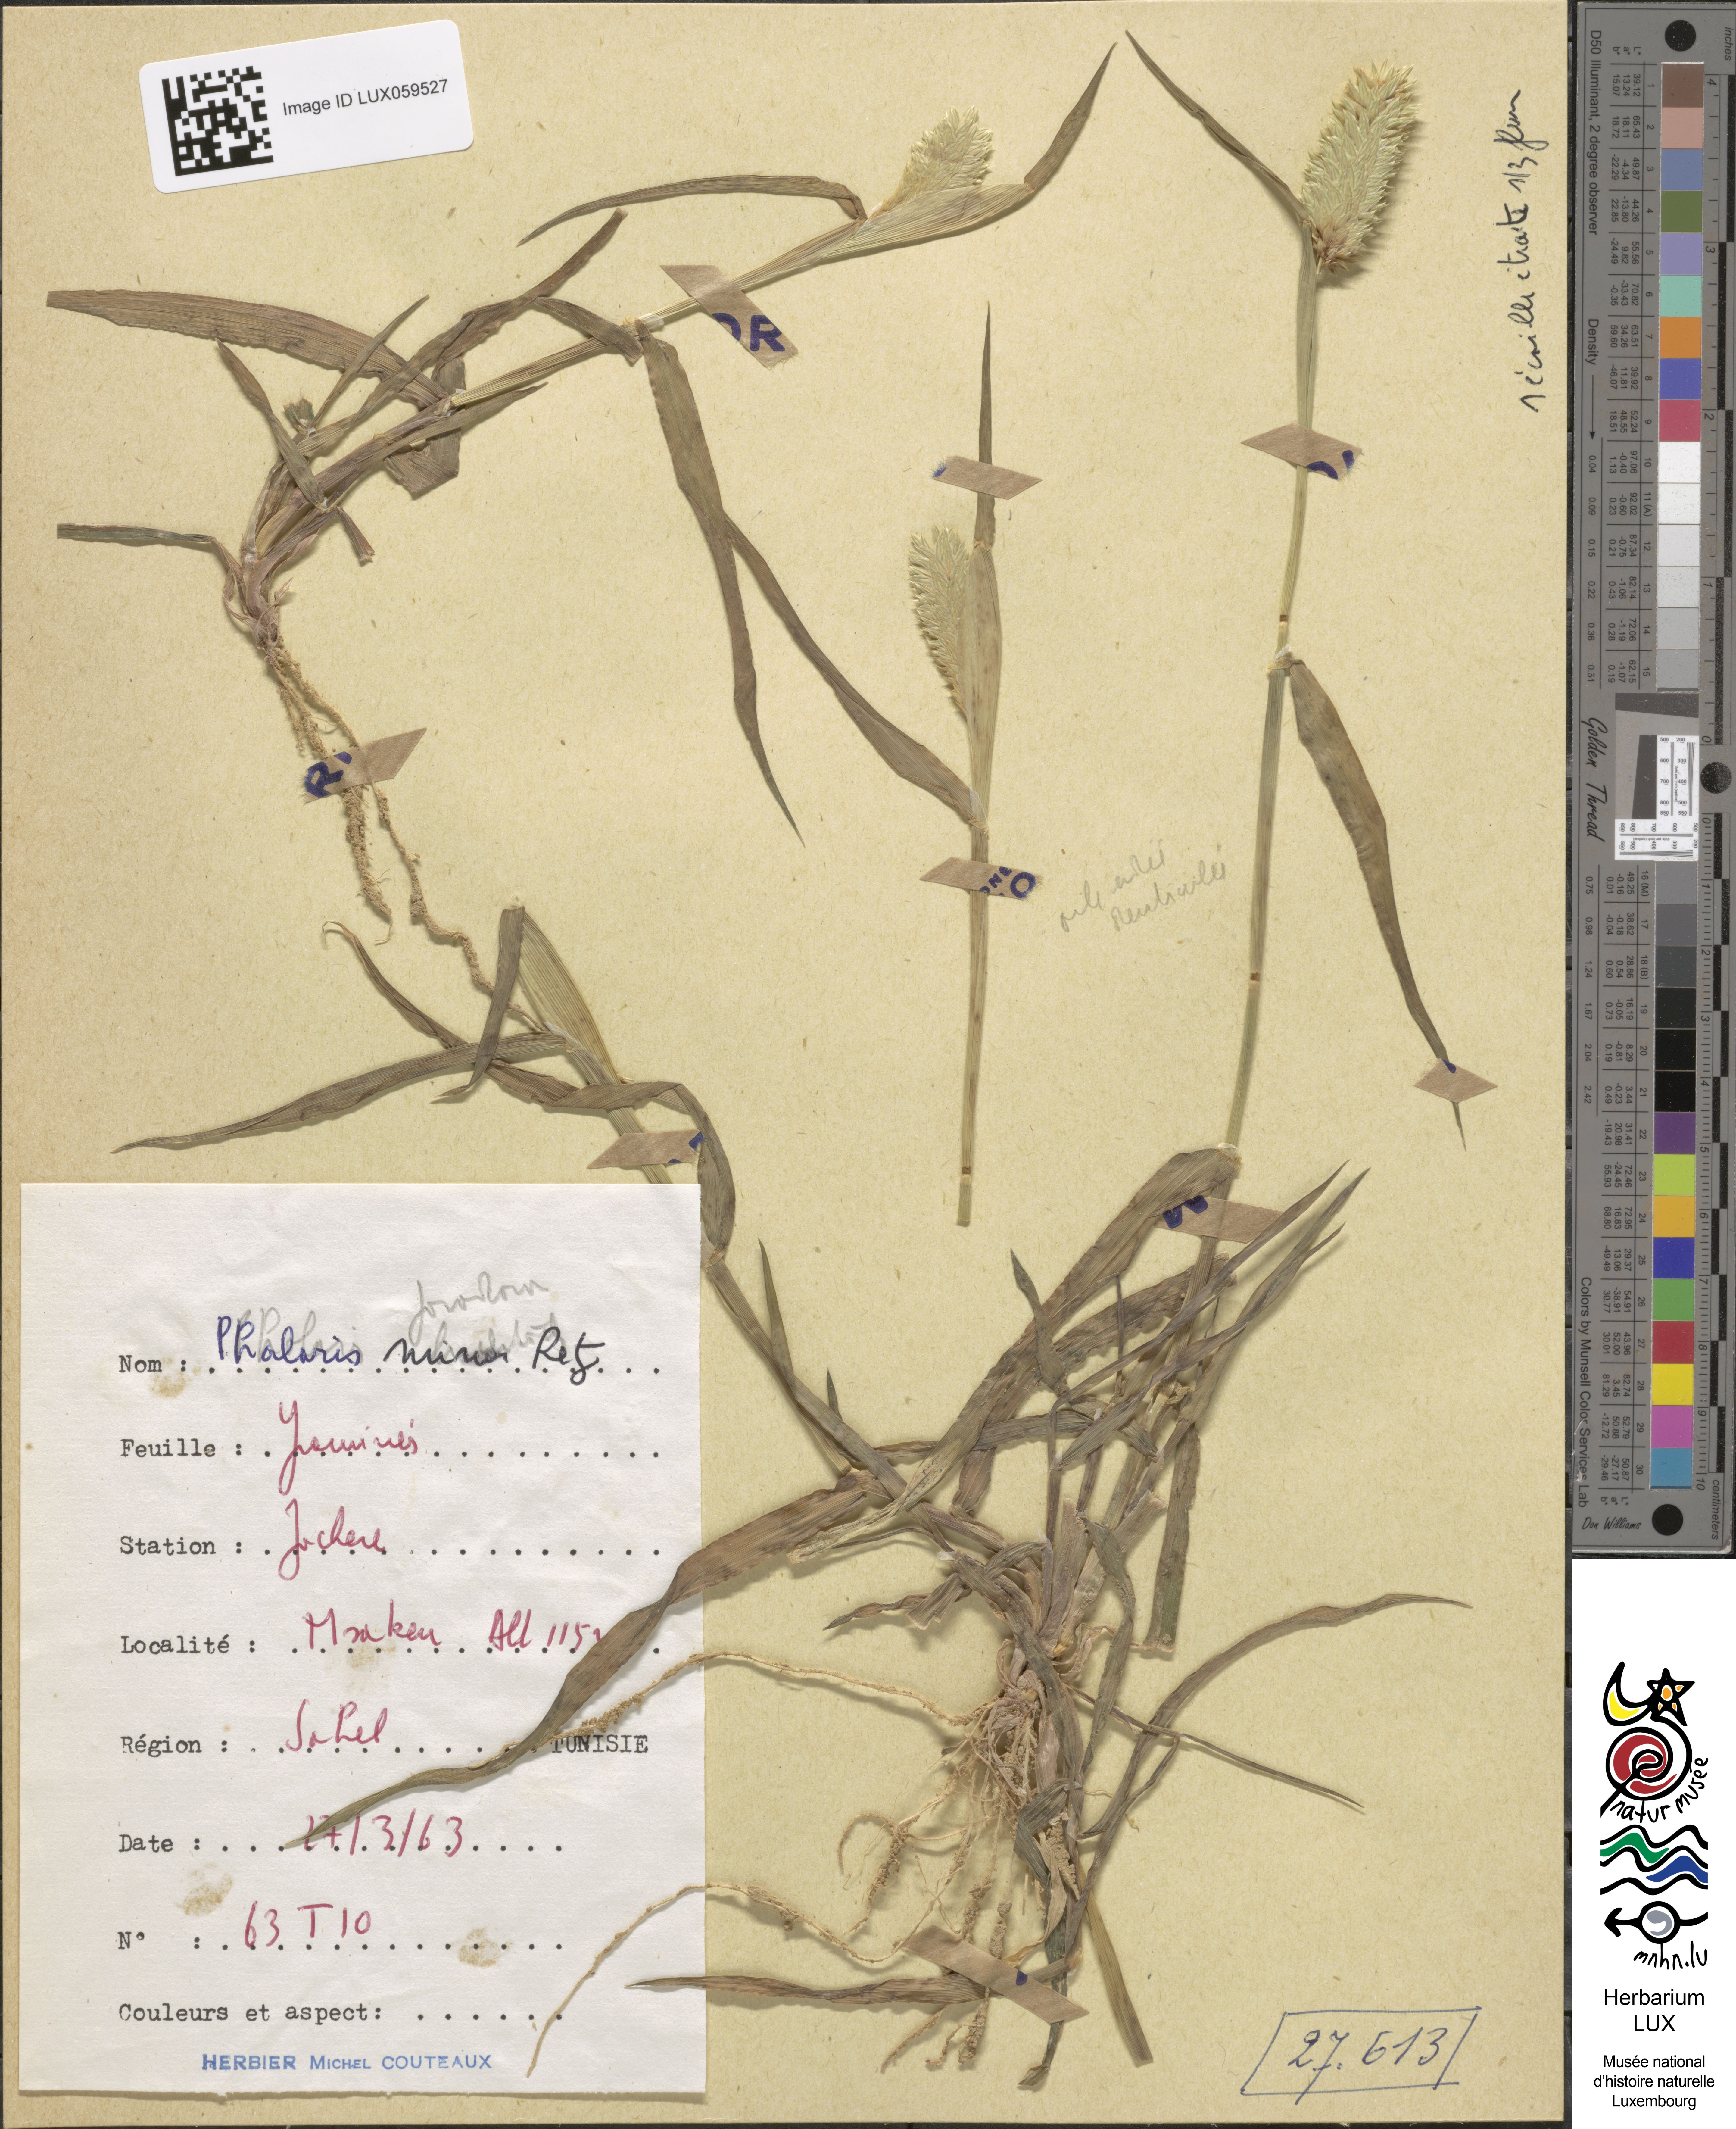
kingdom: Plantae
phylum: Tracheophyta
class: Liliopsida
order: Poales
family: Poaceae
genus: Phalaris
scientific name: Phalaris minor
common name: Littleseed canarygrass
